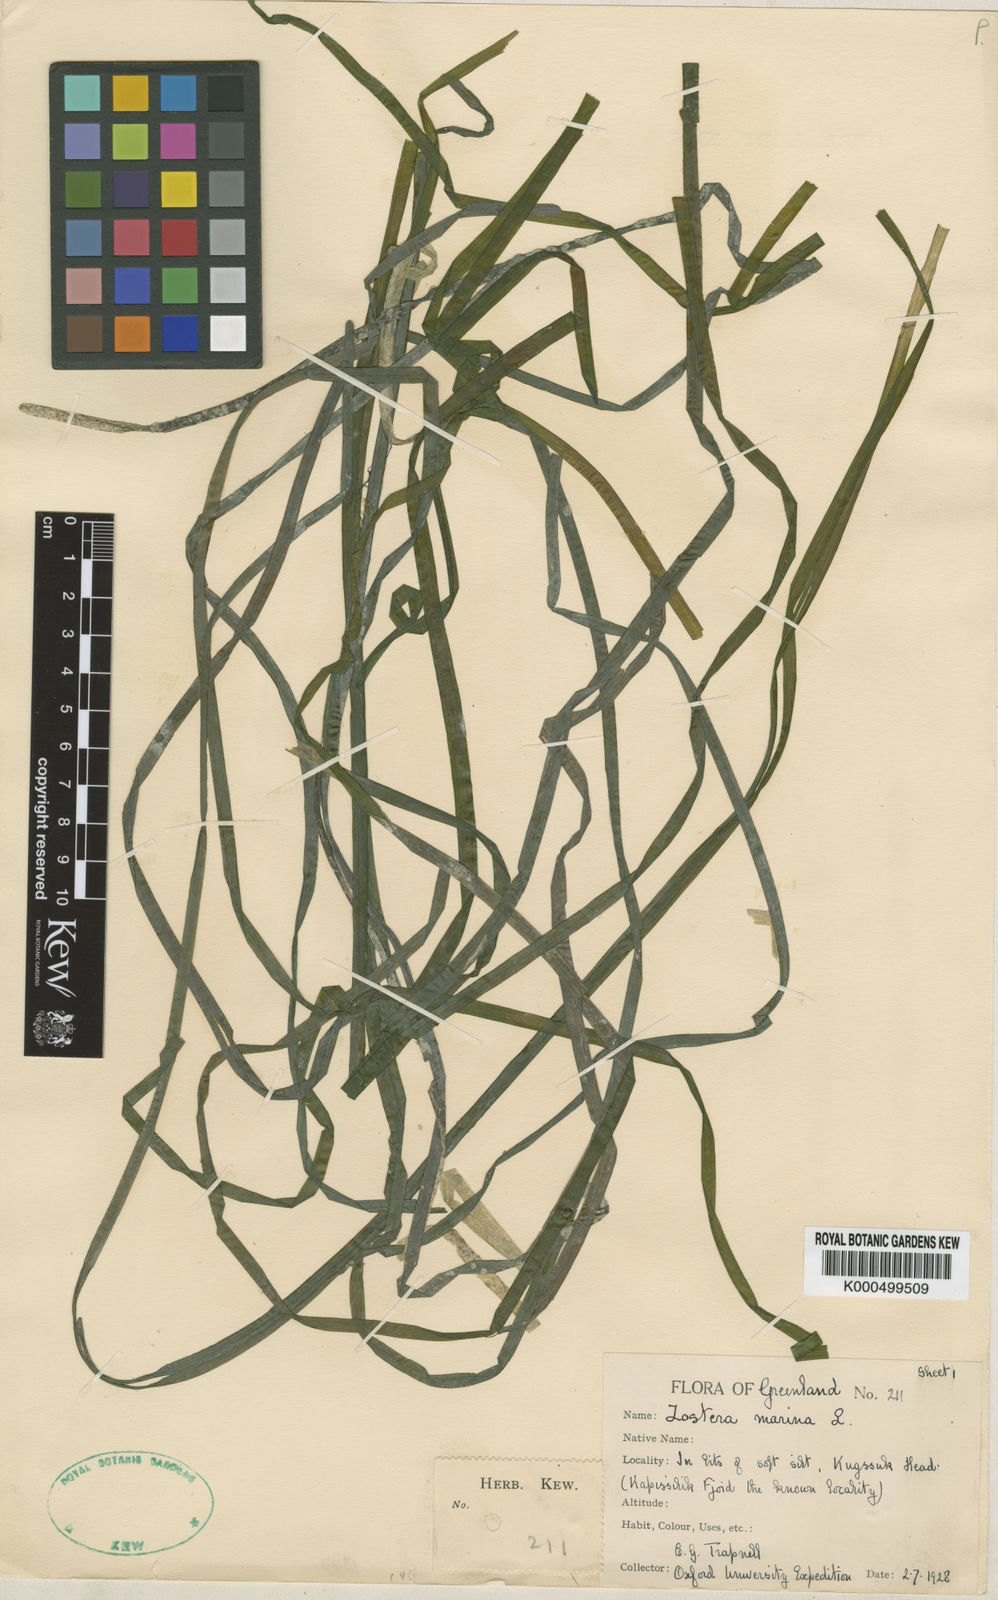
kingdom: Plantae
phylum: Tracheophyta
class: Liliopsida
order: Alismatales
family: Zosteraceae
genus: Zostera
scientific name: Zostera marina
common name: Eelgrass
